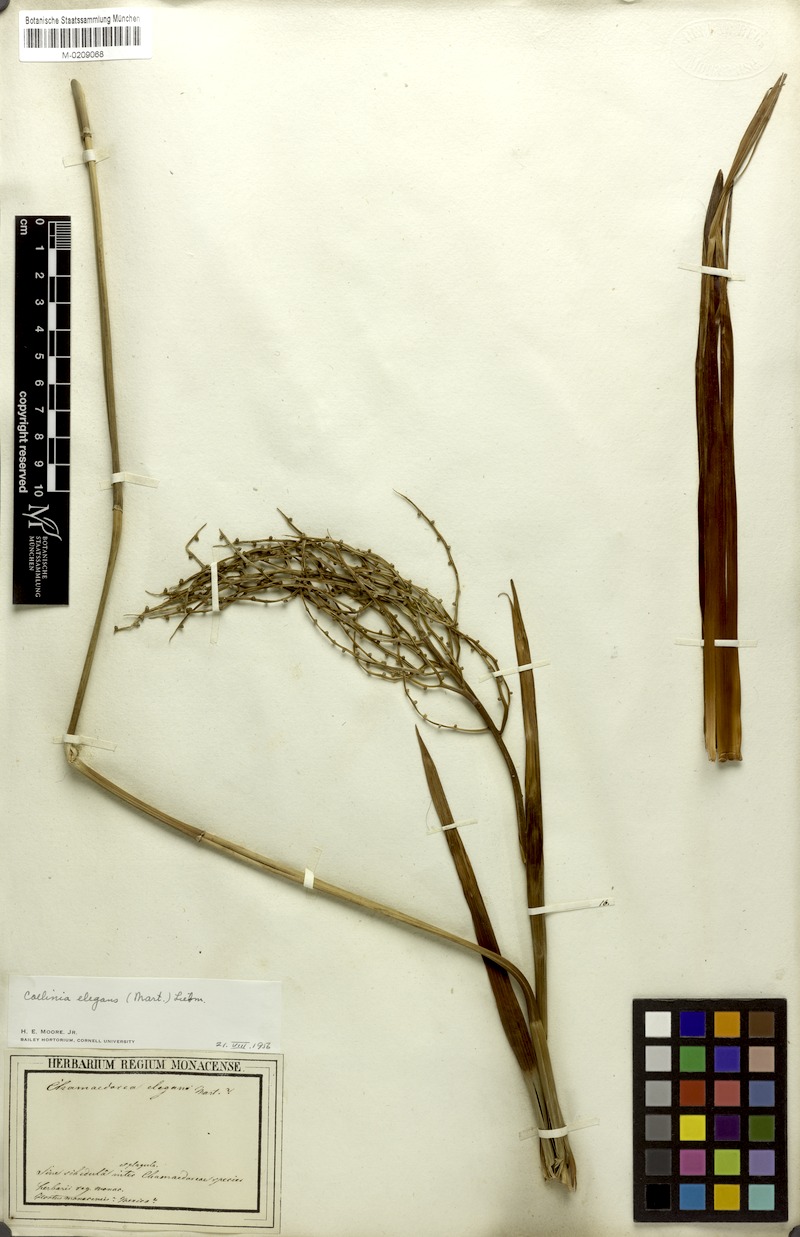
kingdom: Plantae
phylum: Tracheophyta
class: Liliopsida
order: Arecales
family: Arecaceae
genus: Chamaedorea
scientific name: Chamaedorea elegans
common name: Good-luck palm
